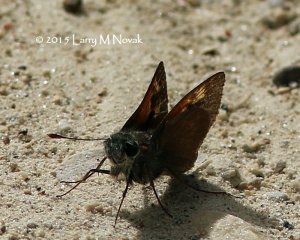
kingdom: Animalia
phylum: Arthropoda
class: Insecta
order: Lepidoptera
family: Hesperiidae
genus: Polites
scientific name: Polites themistocles
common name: Tawny-edged Skipper
